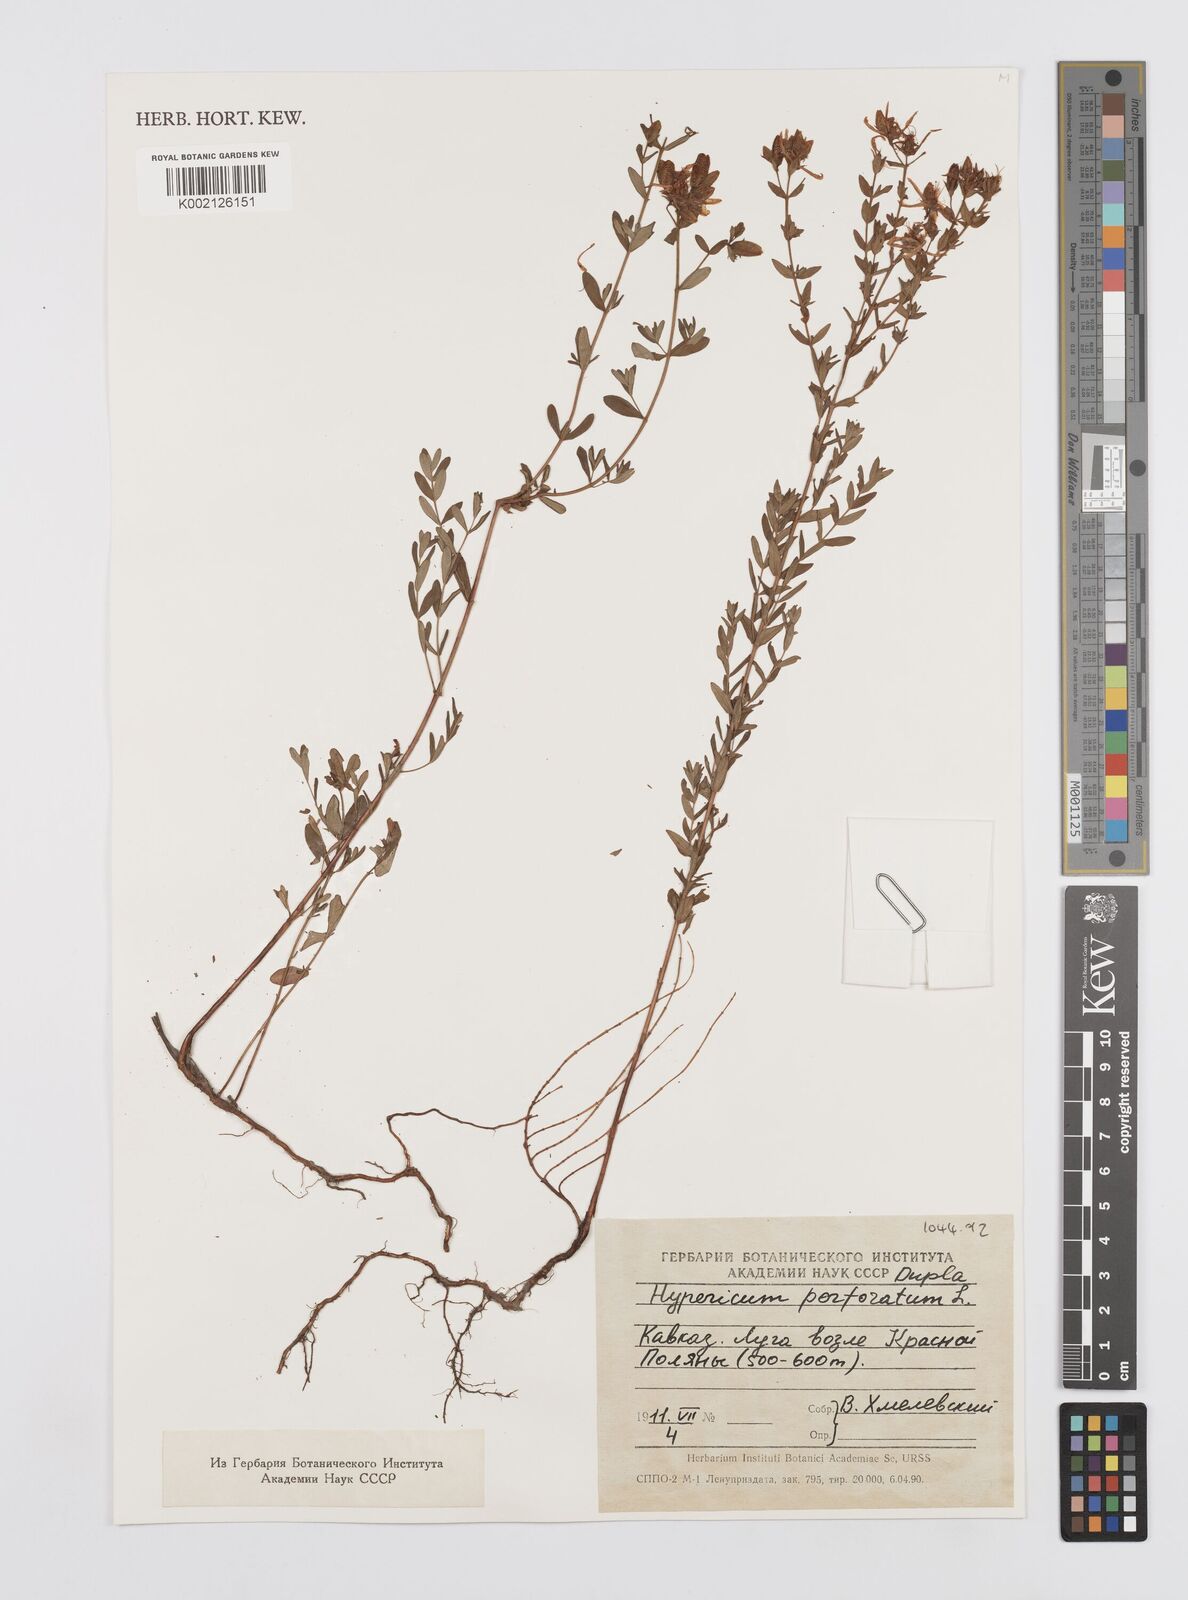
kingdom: Plantae
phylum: Tracheophyta
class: Magnoliopsida
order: Malpighiales
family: Hypericaceae
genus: Hypericum
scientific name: Hypericum perfoliatum
